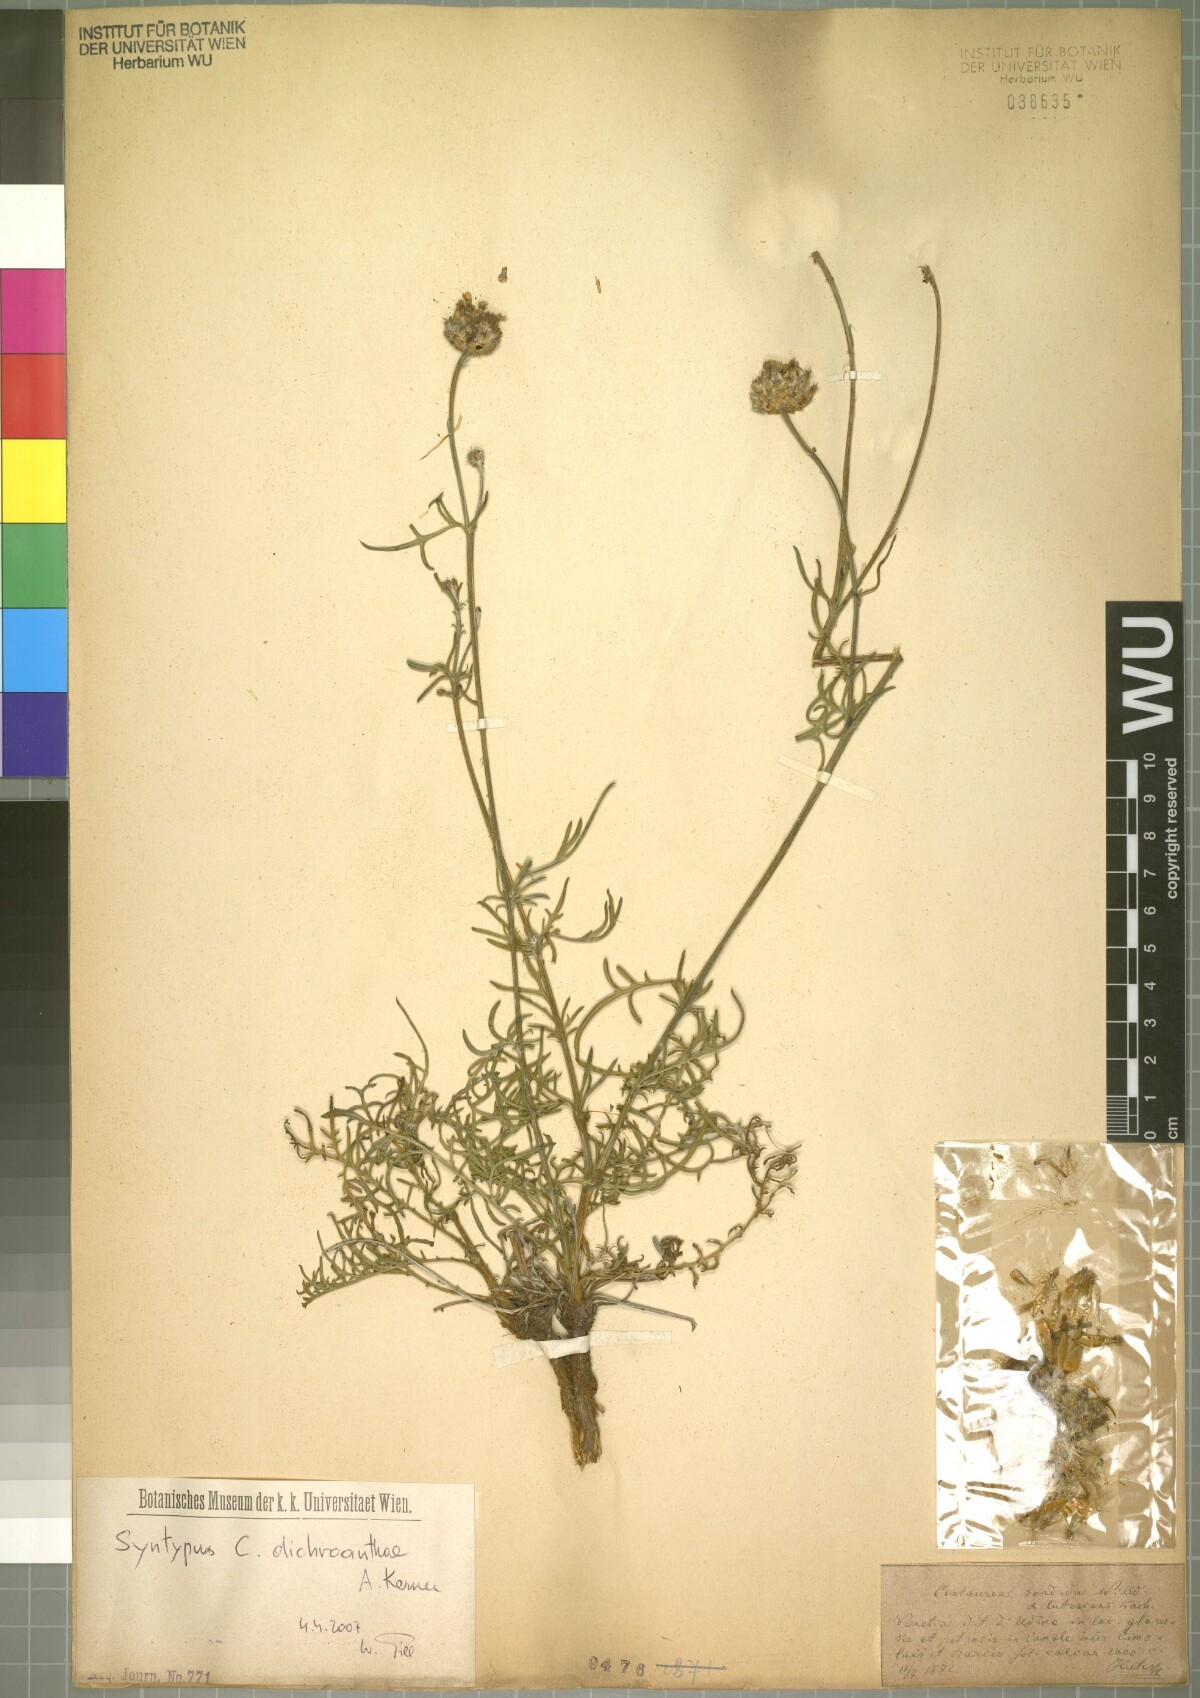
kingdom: Plantae
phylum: Tracheophyta
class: Magnoliopsida
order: Asterales
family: Asteraceae
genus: Centaurea
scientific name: Centaurea dichroantha
